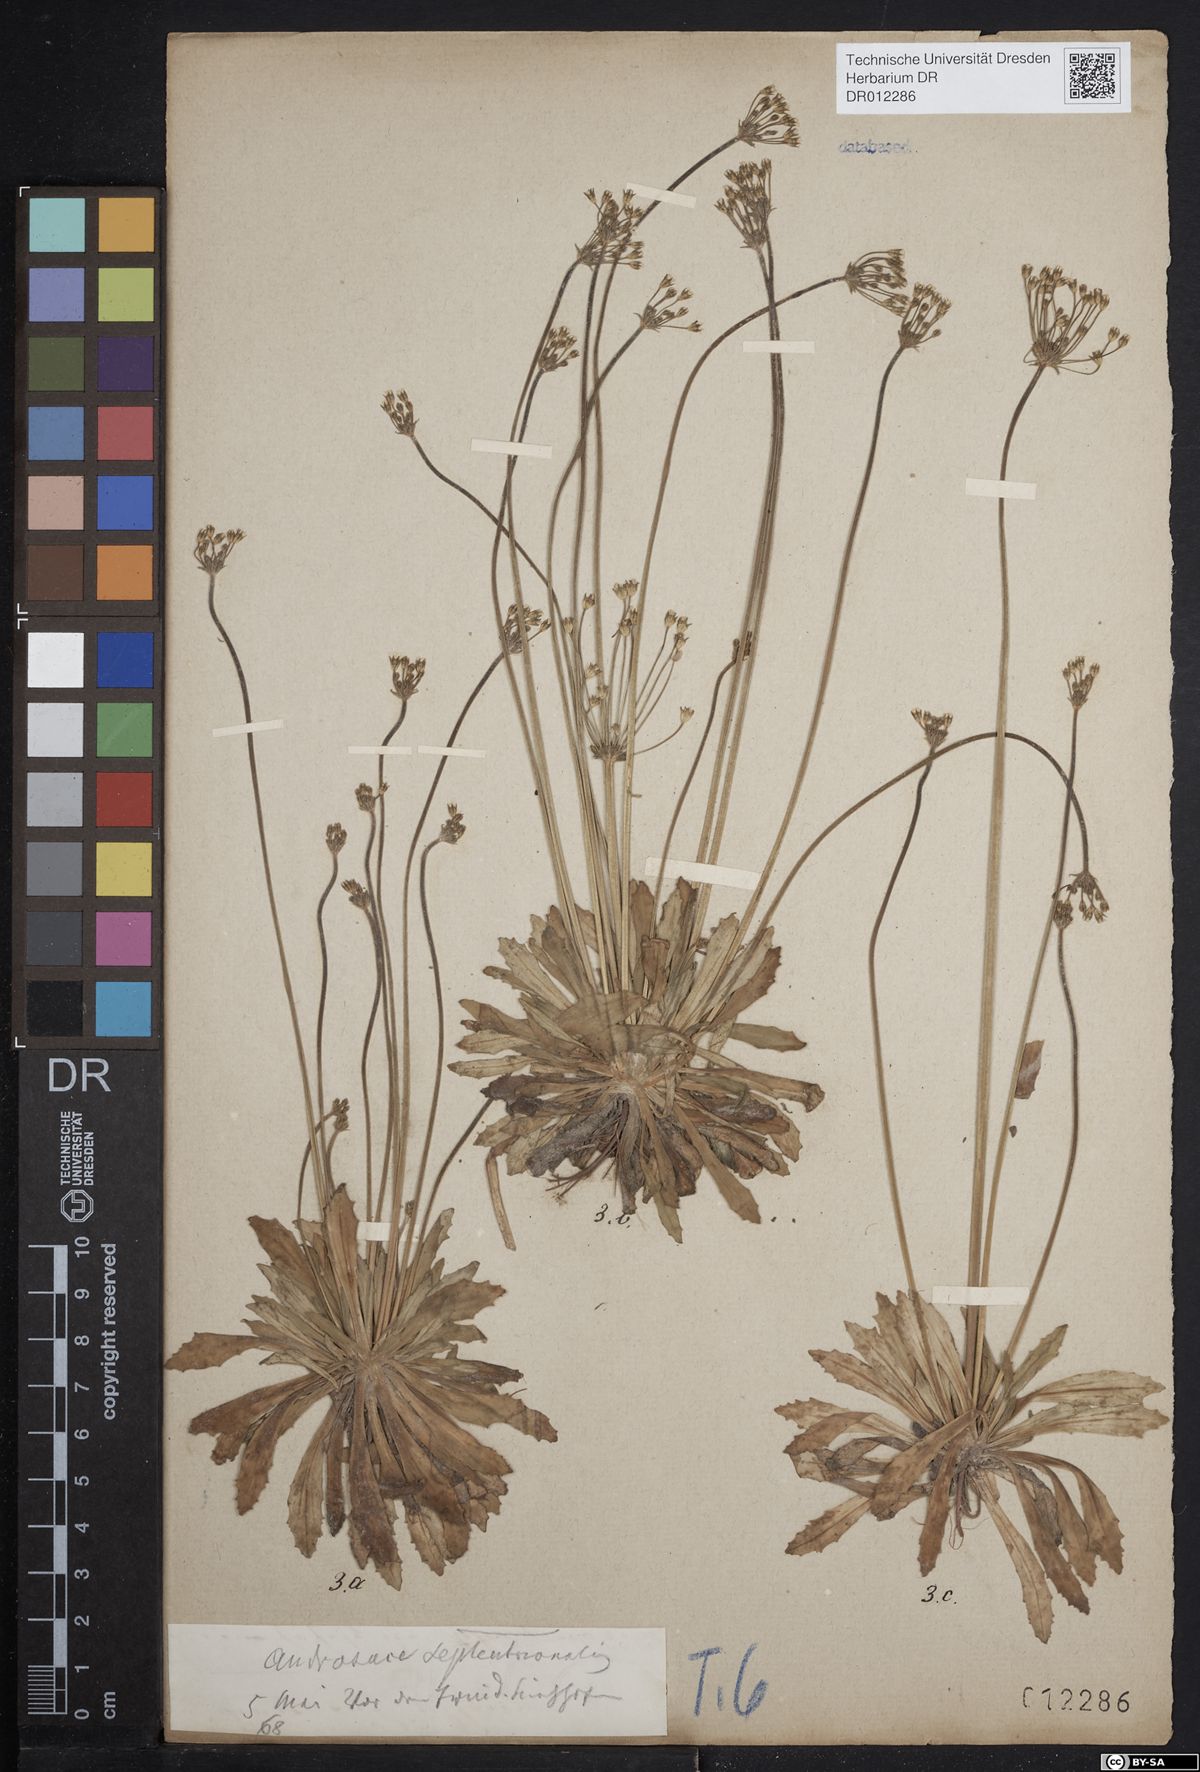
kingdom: Plantae
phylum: Tracheophyta
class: Magnoliopsida
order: Ericales
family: Primulaceae
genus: Androsace
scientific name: Androsace septentrionalis
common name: Hairy northern fairy-candelabra
